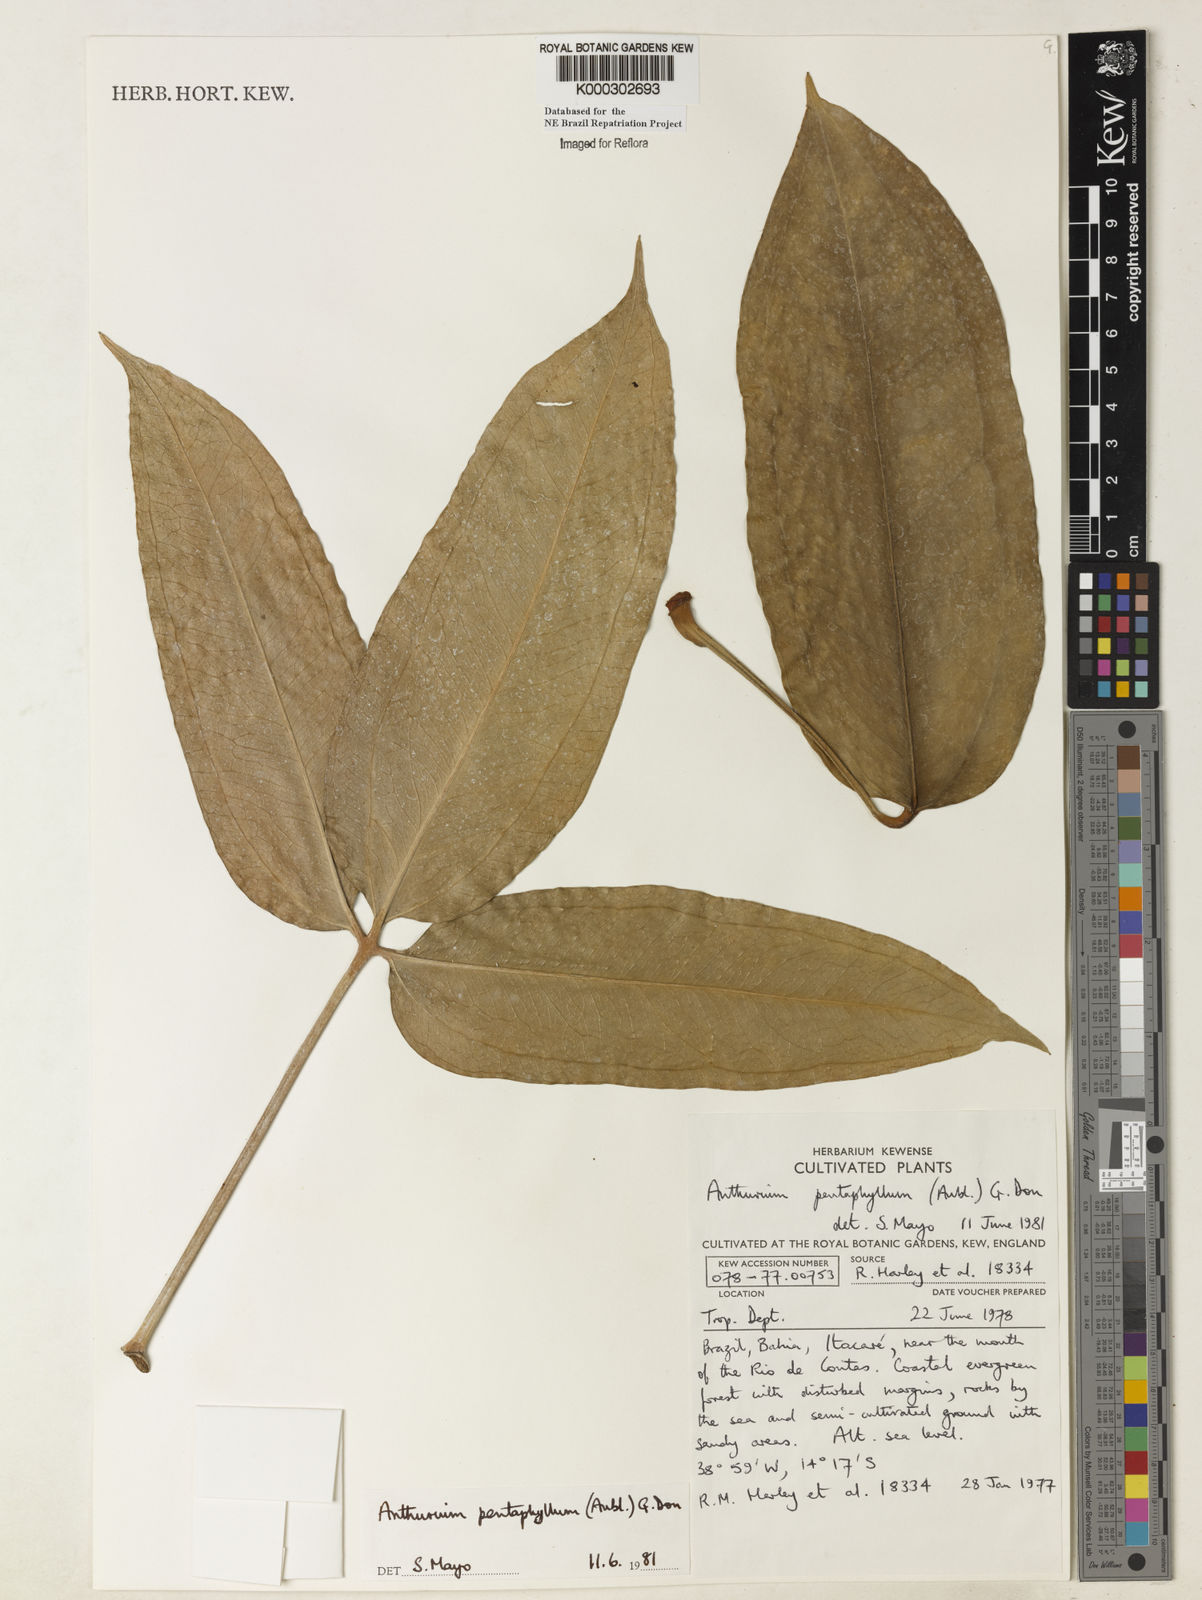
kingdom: Plantae
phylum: Tracheophyta
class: Liliopsida
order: Alismatales
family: Araceae
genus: Anthurium
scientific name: Anthurium pentaphyllum
